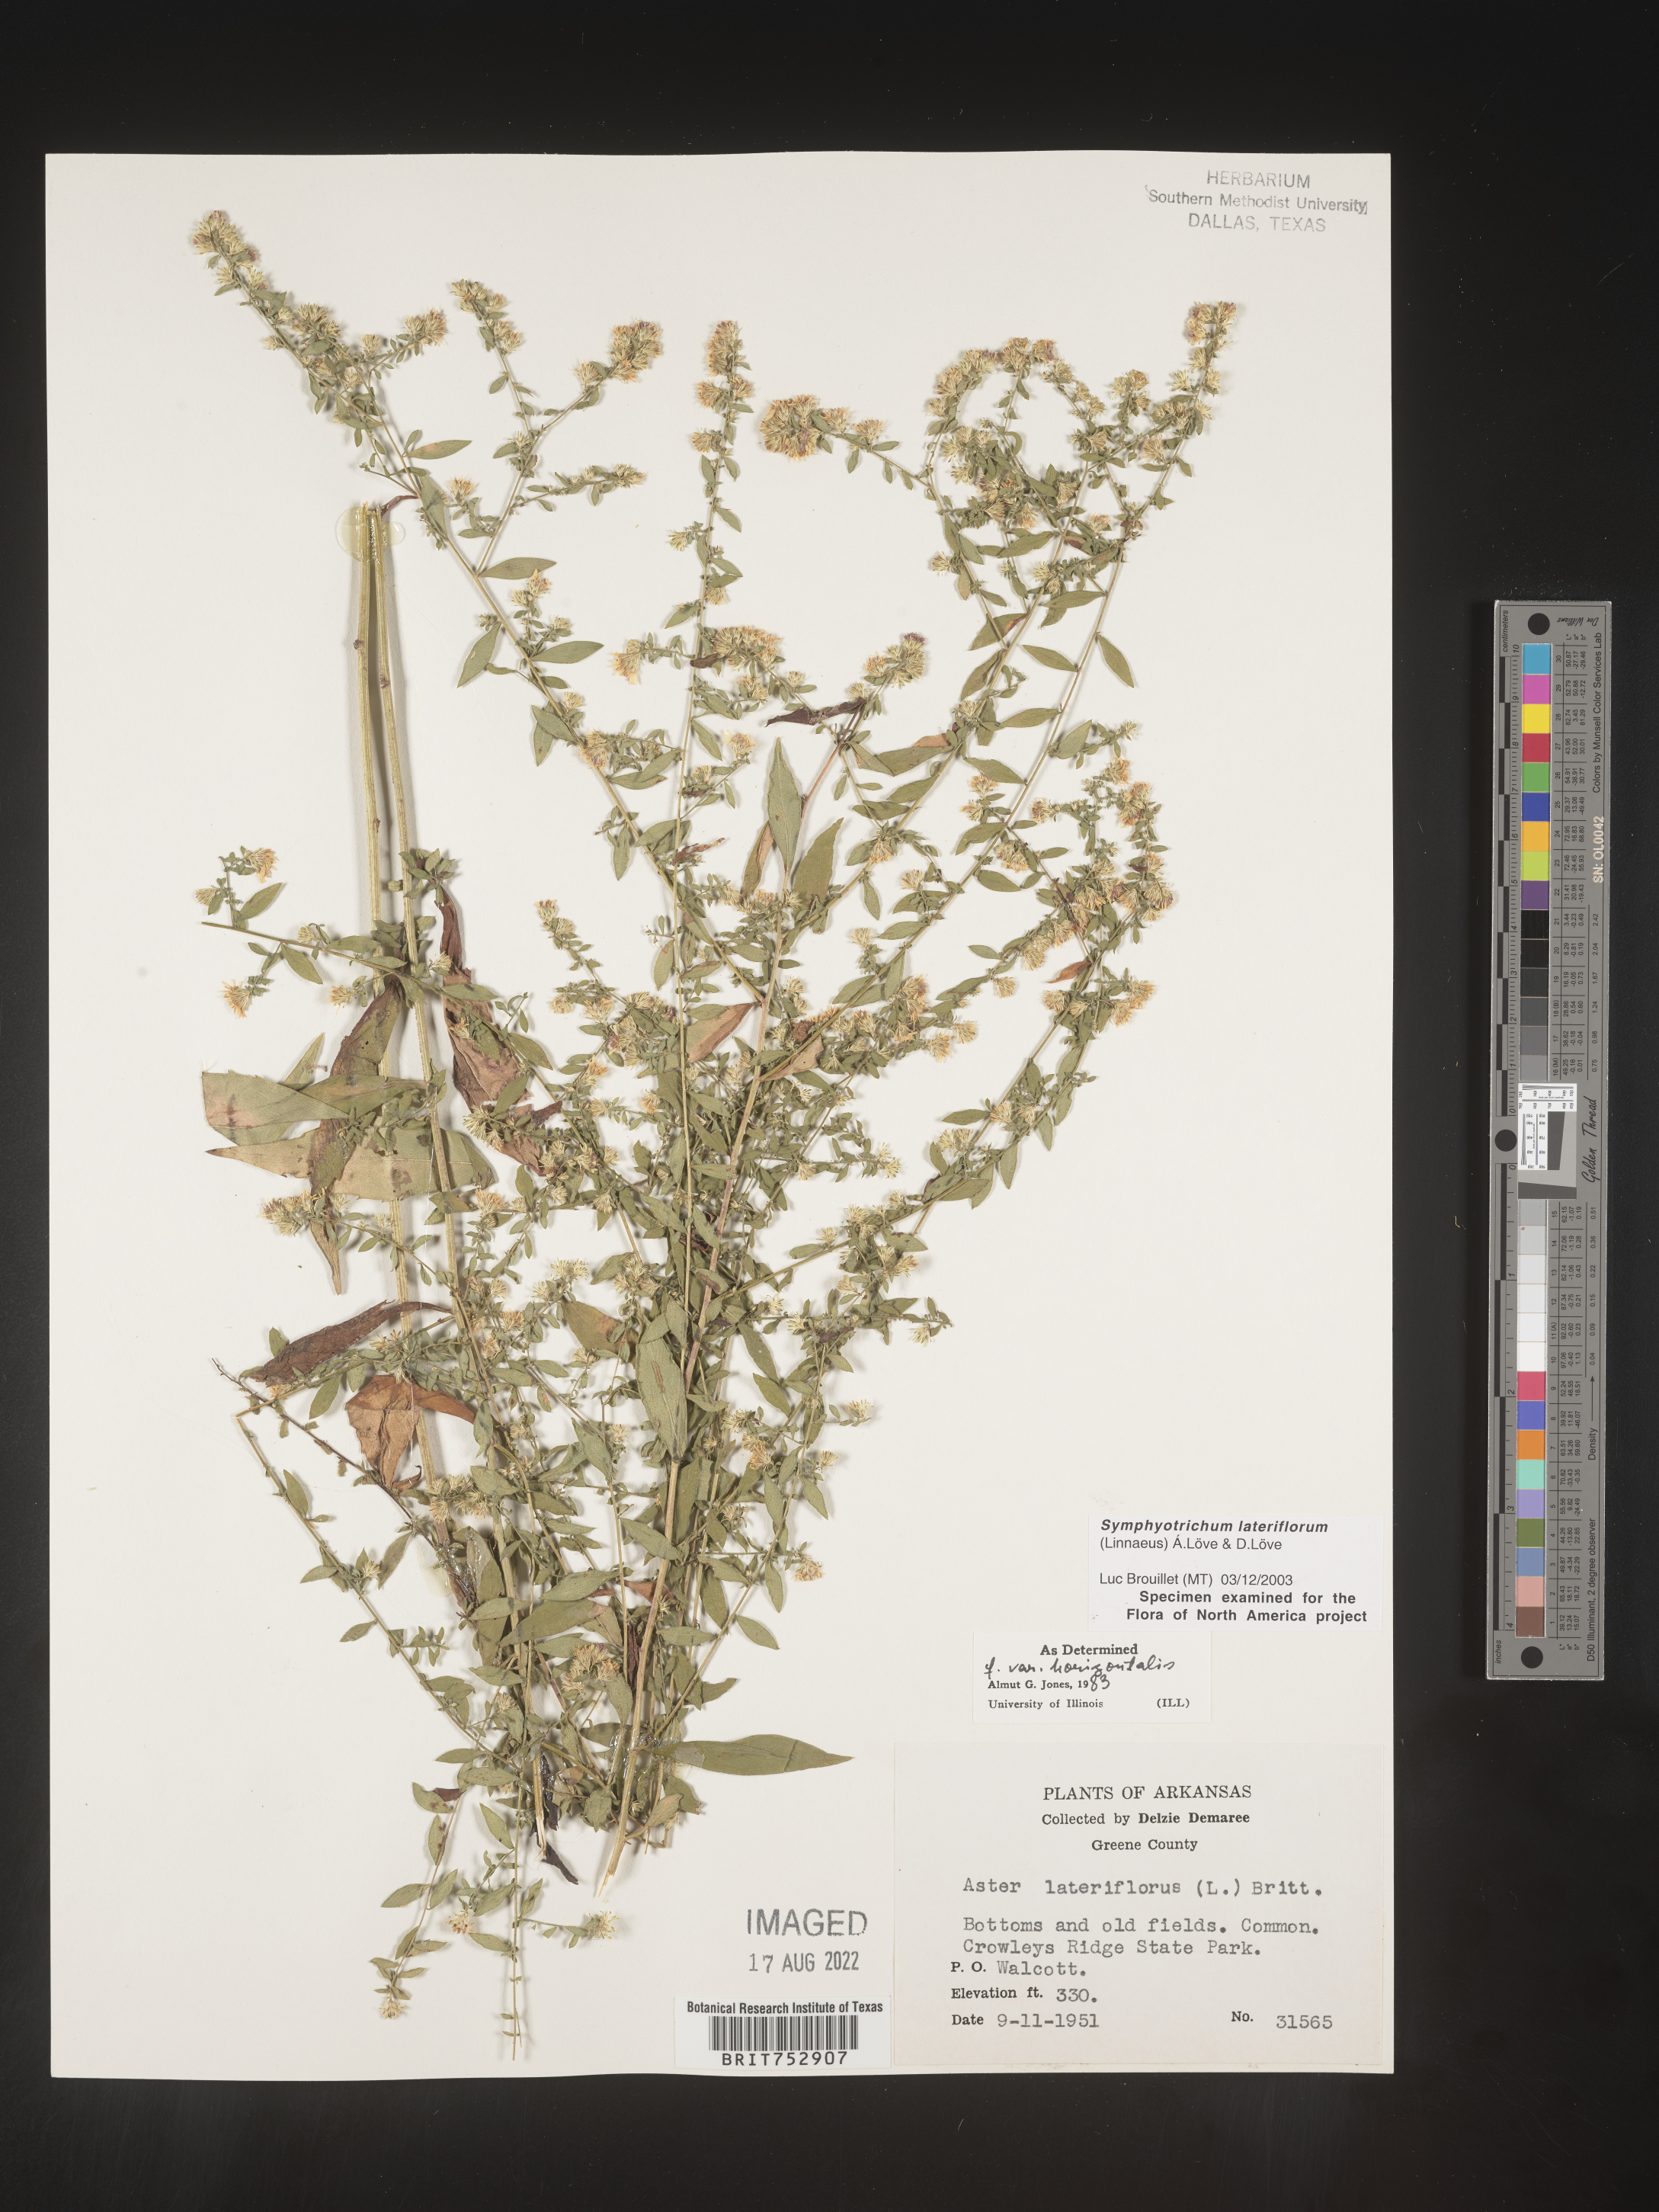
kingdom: Plantae
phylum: Tracheophyta
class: Magnoliopsida
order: Asterales
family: Asteraceae
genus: Symphyotrichum
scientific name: Symphyotrichum lateriflorum
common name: Calico aster
